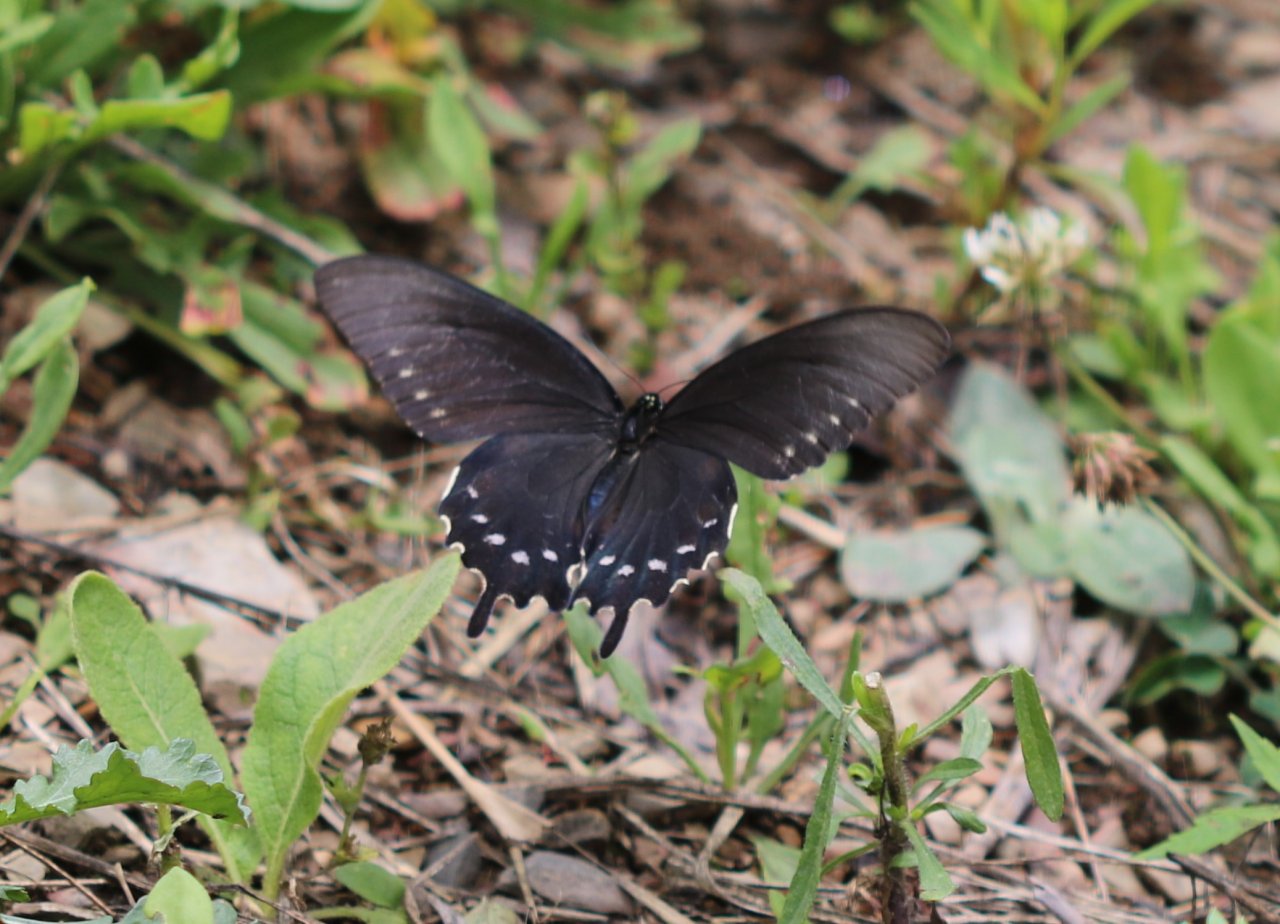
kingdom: Animalia
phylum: Arthropoda
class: Insecta
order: Lepidoptera
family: Papilionidae
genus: Battus
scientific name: Battus philenor
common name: Pipevine Swallowtail
